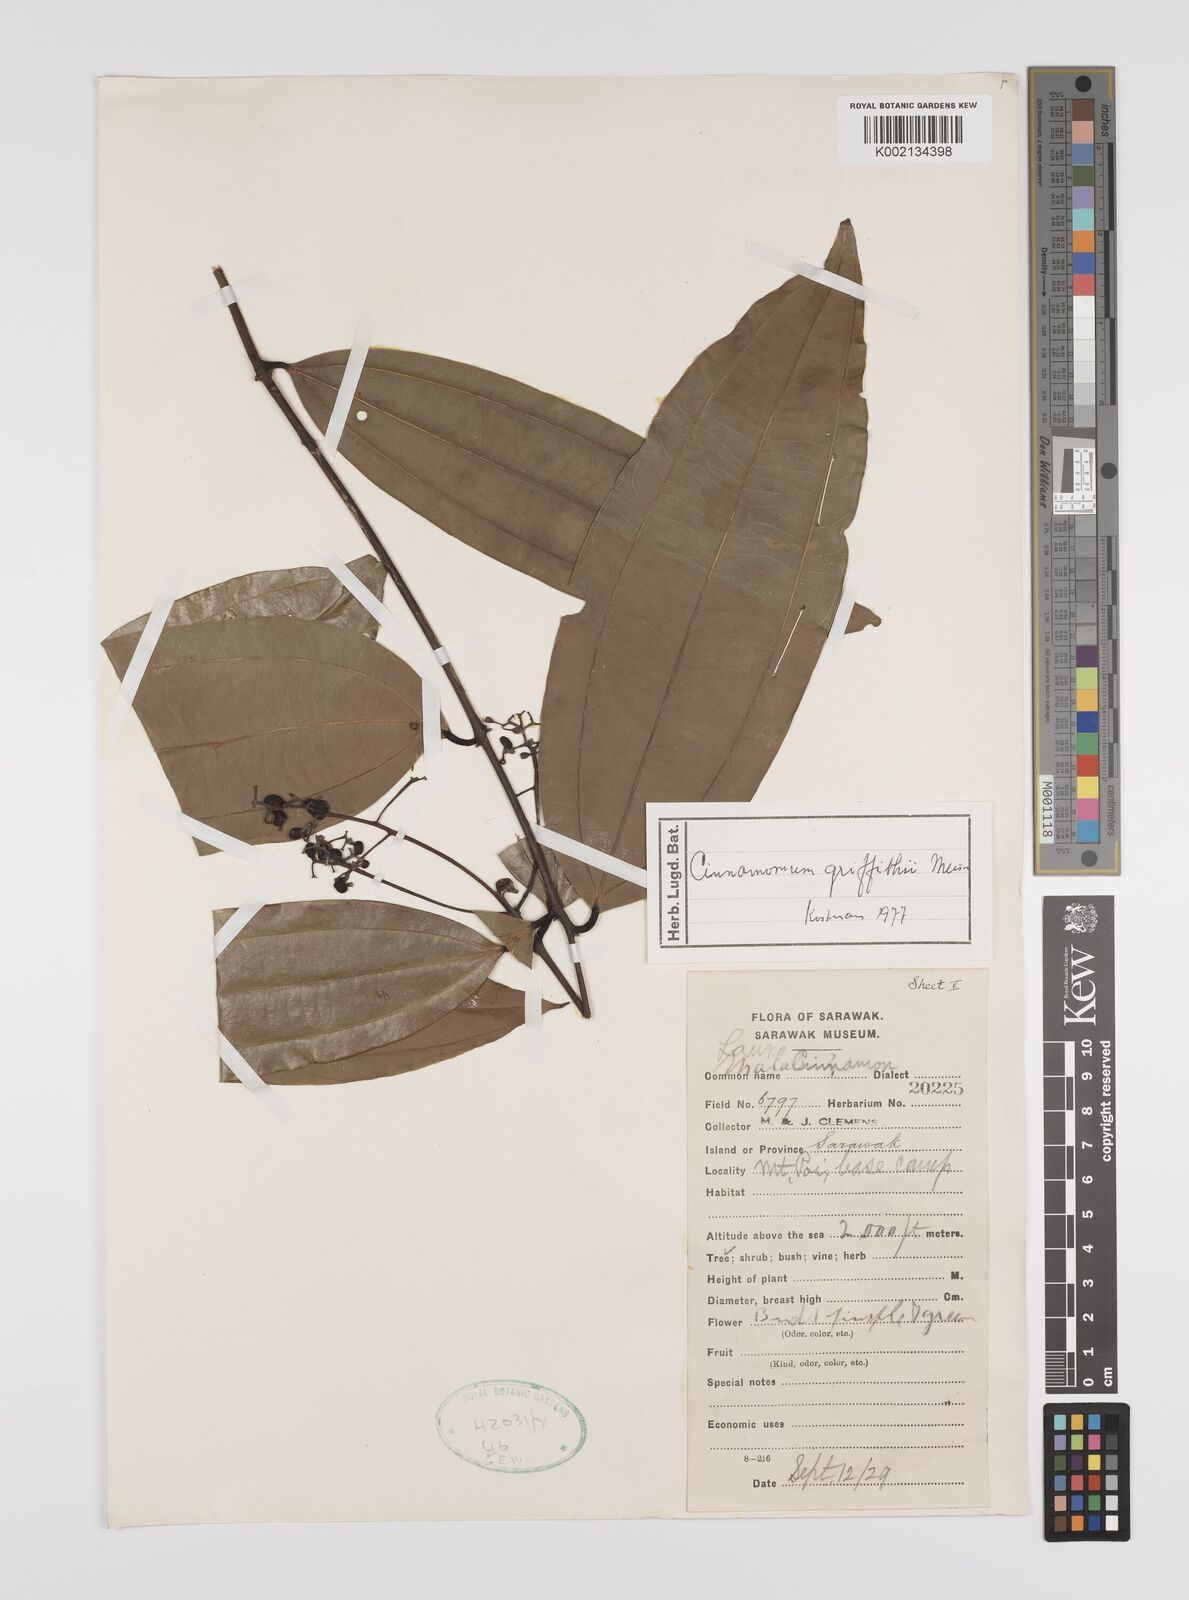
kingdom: Plantae
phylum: Tracheophyta
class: Magnoliopsida
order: Laurales
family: Lauraceae
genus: Cinnamomum
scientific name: Cinnamomum iners
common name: Wild cinnamon
